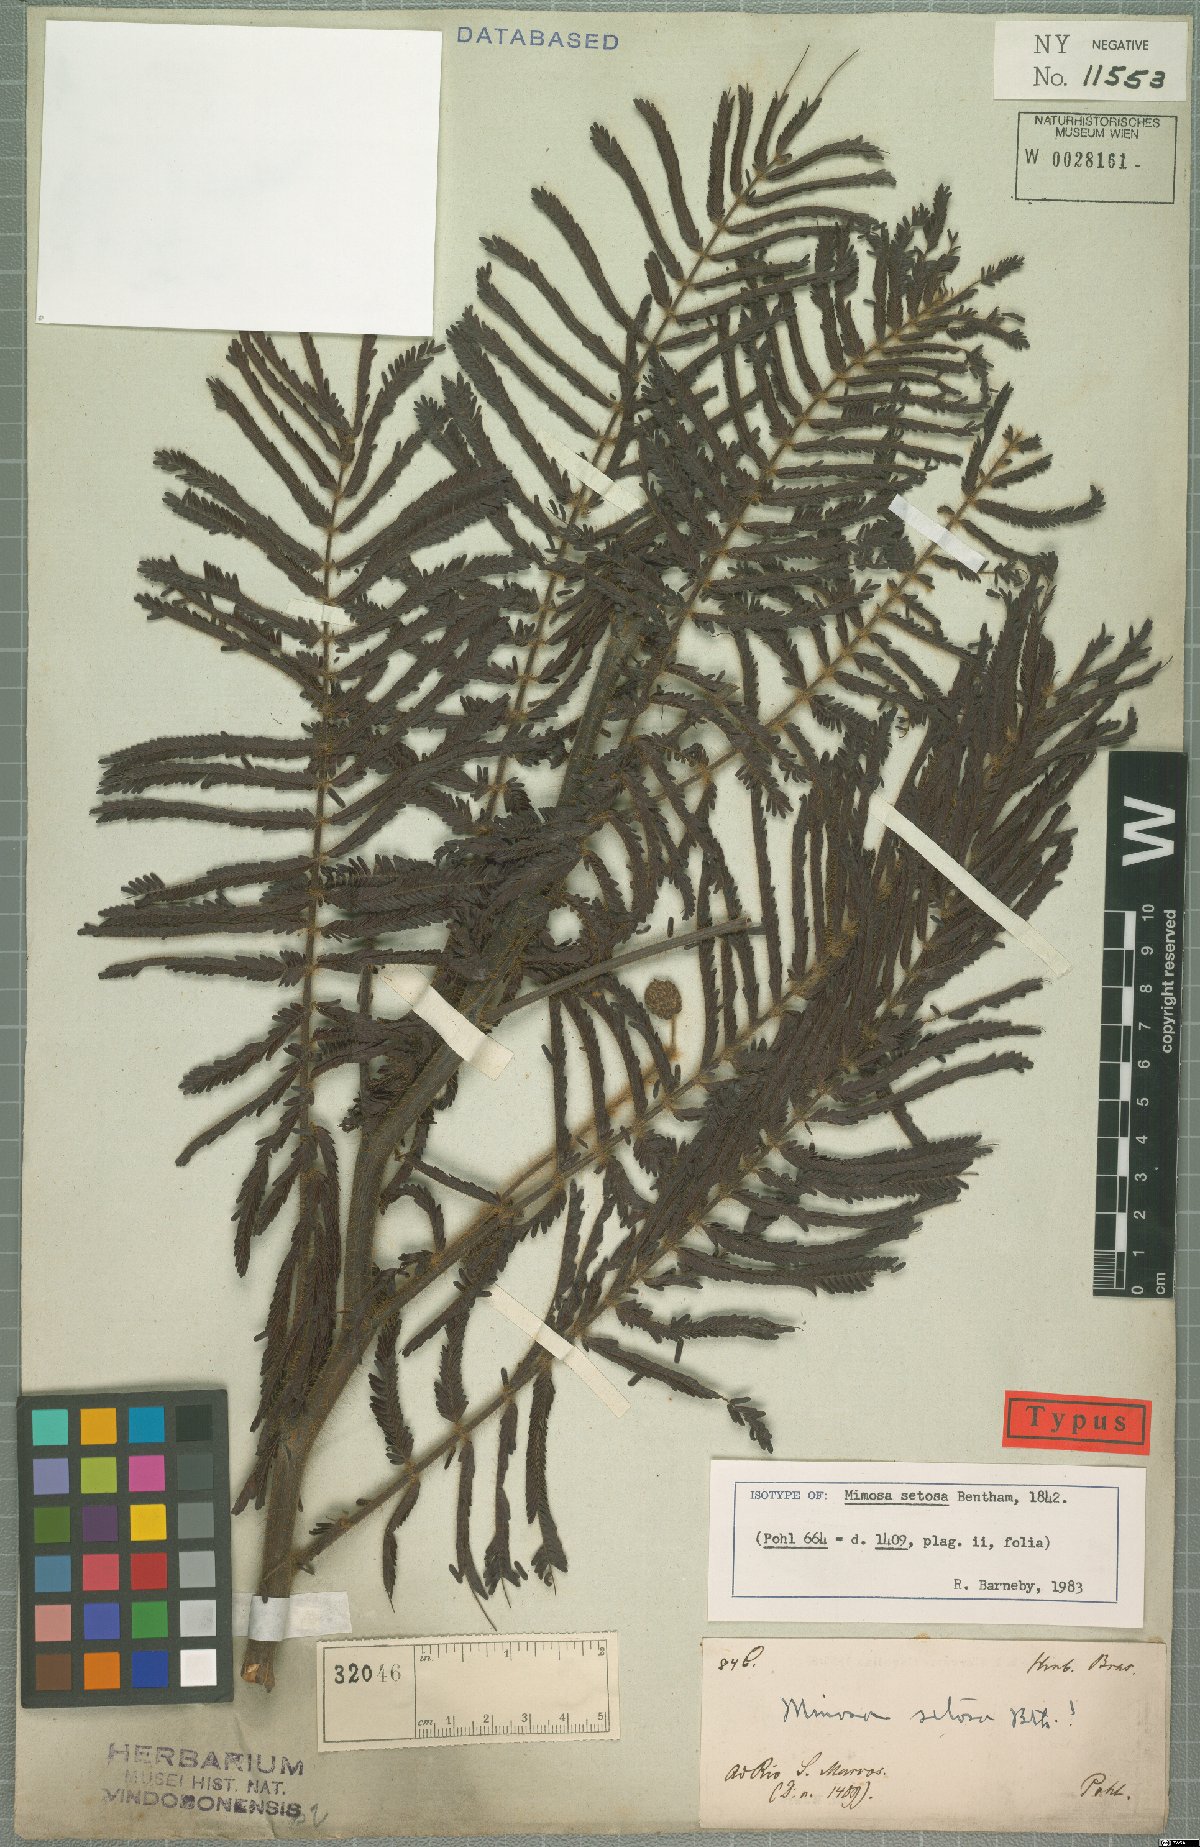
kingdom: Plantae
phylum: Tracheophyta
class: Magnoliopsida
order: Fabales
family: Fabaceae
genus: Mimosa
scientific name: Mimosa setosa
